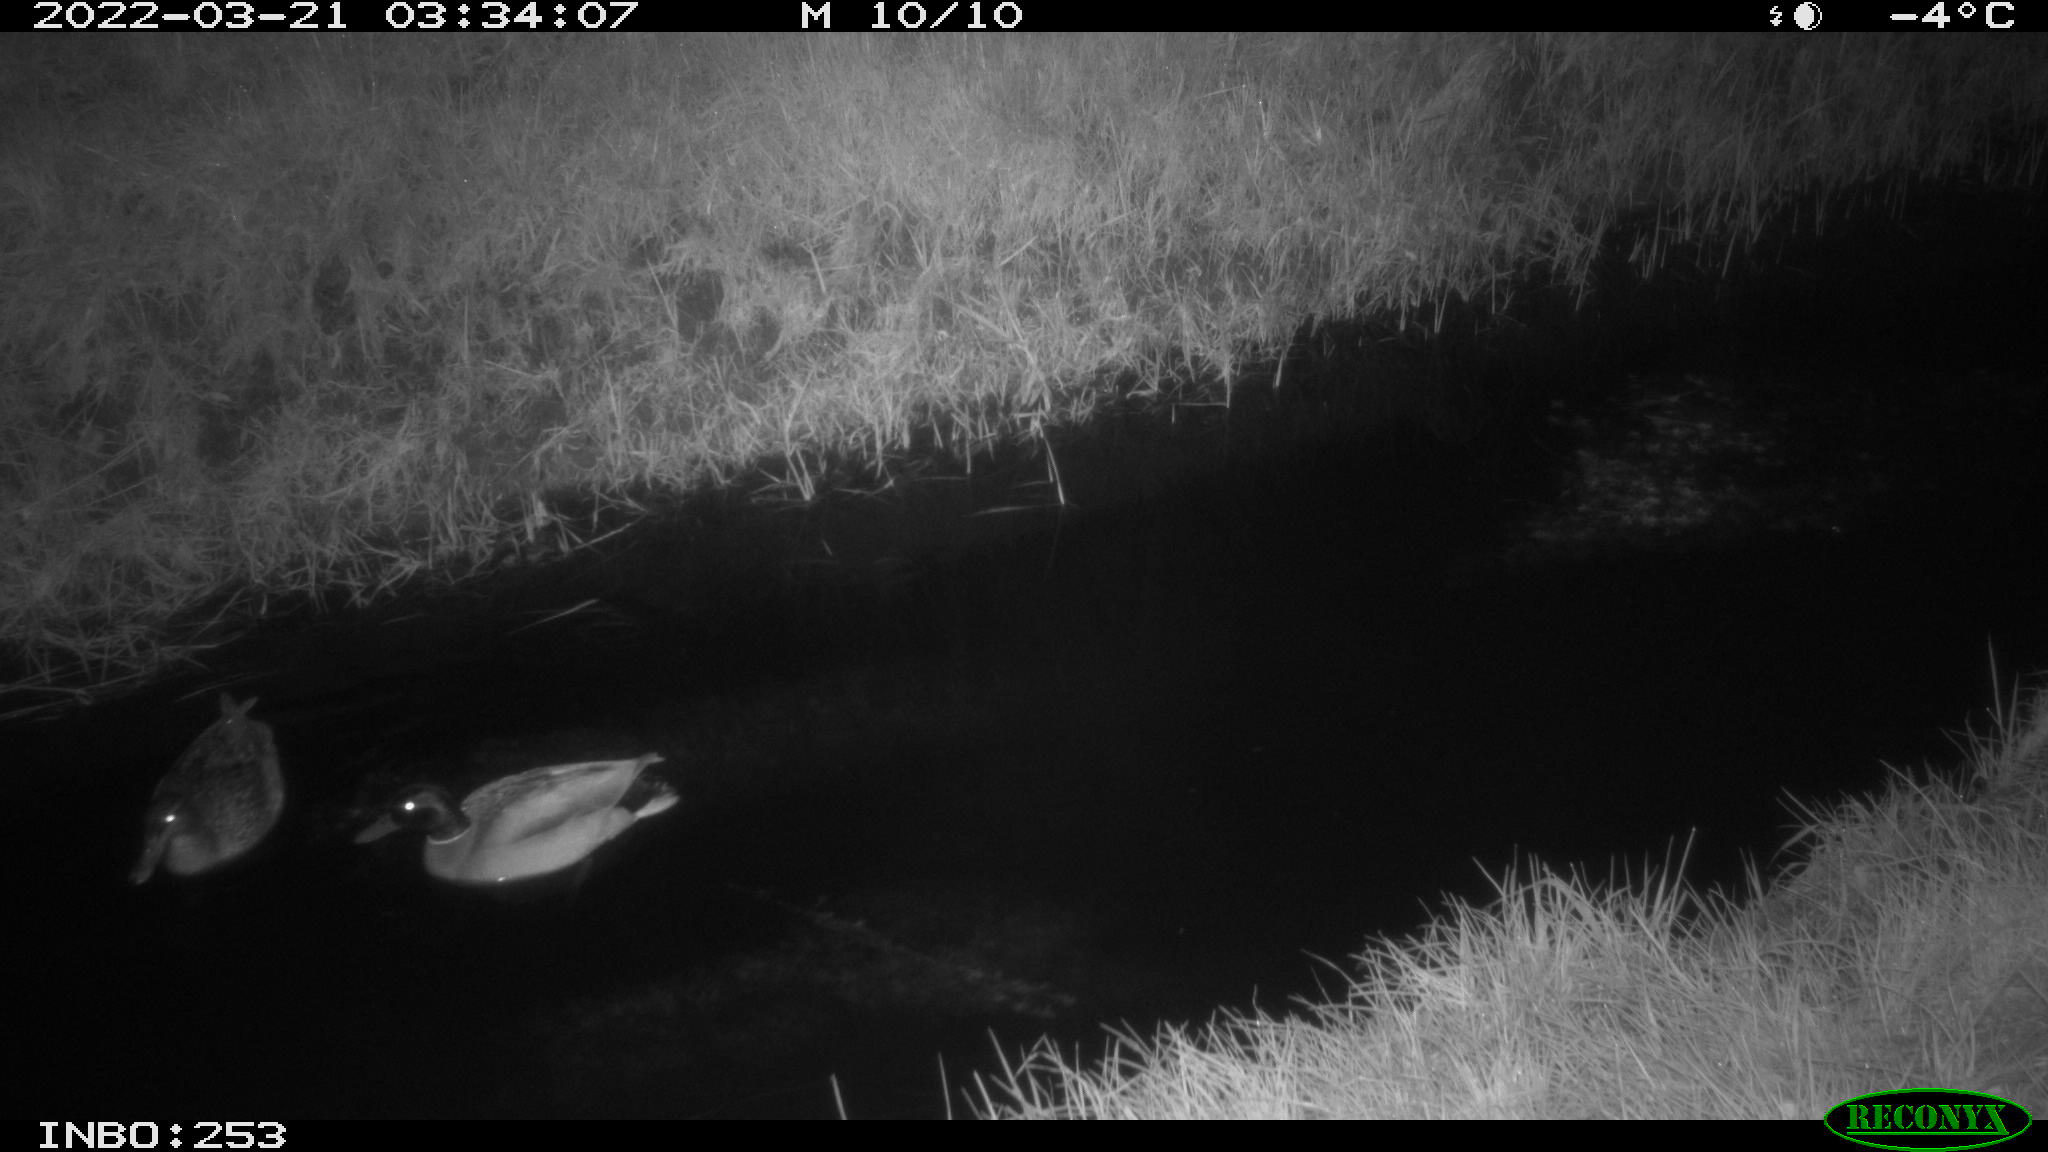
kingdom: Animalia
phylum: Chordata
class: Aves
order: Anseriformes
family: Anatidae
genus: Anas
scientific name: Anas platyrhynchos
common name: Mallard
